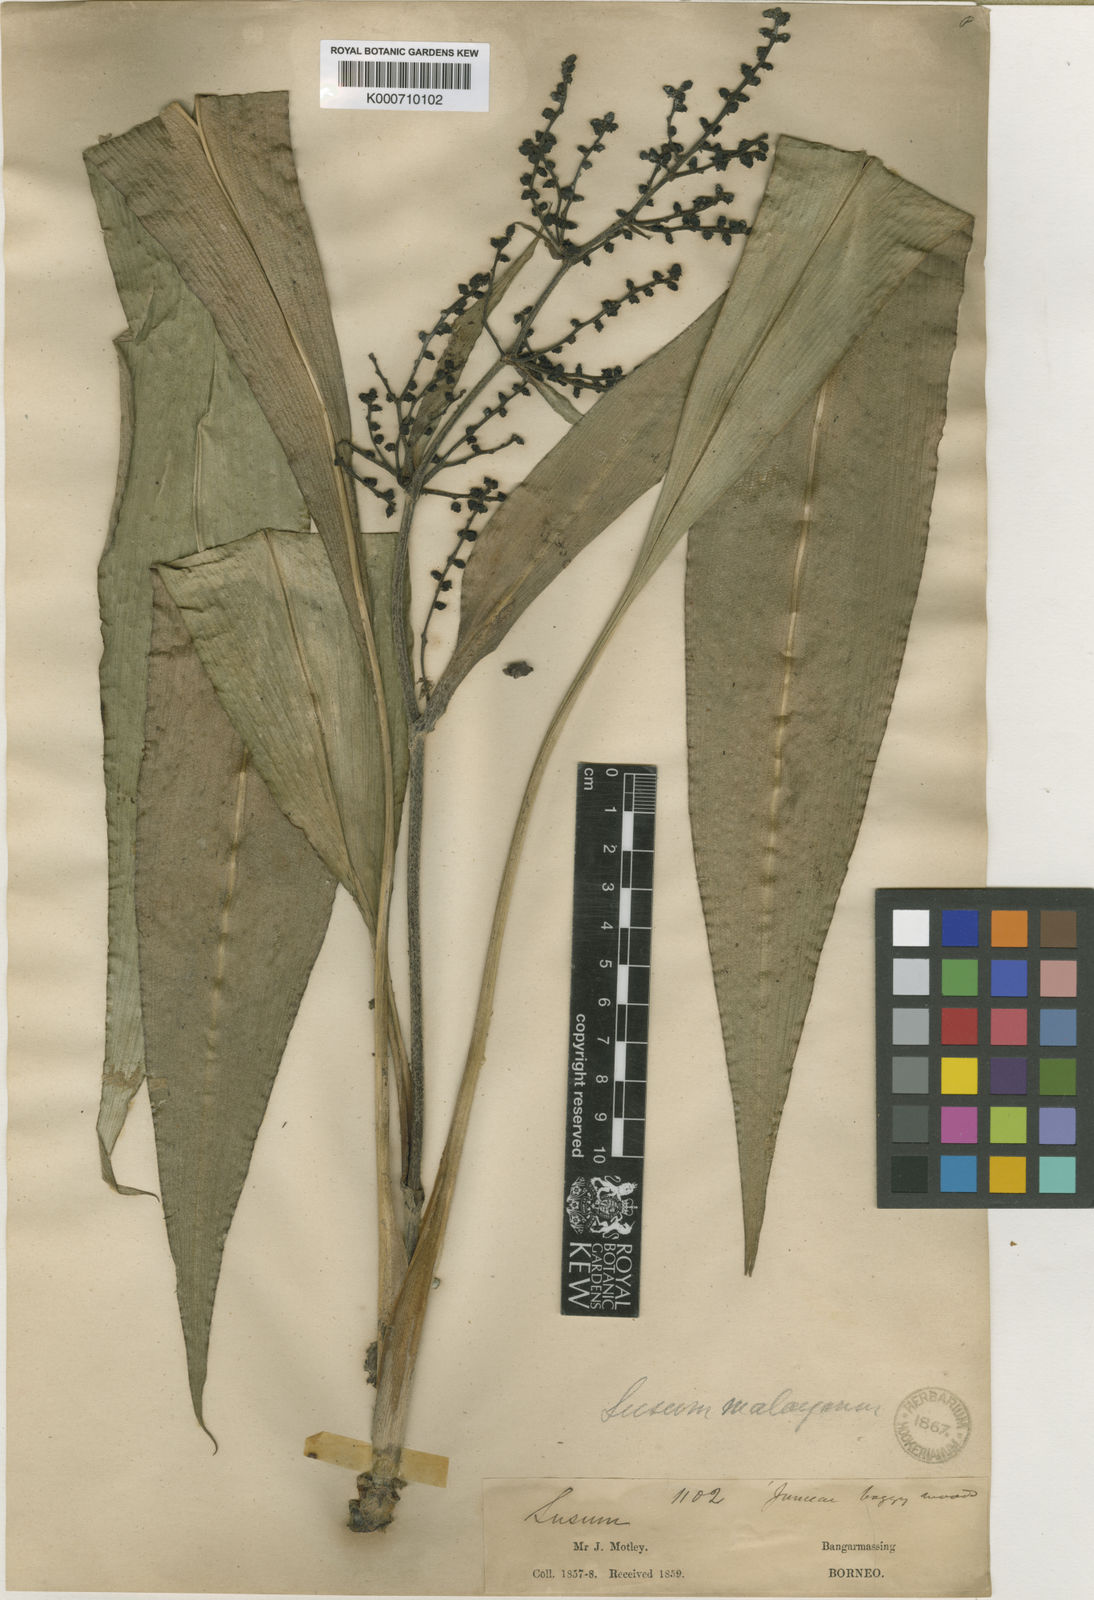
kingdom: Plantae
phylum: Tracheophyta
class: Liliopsida
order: Commelinales
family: Hanguanaceae
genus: Hanguana
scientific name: Hanguana malayana
